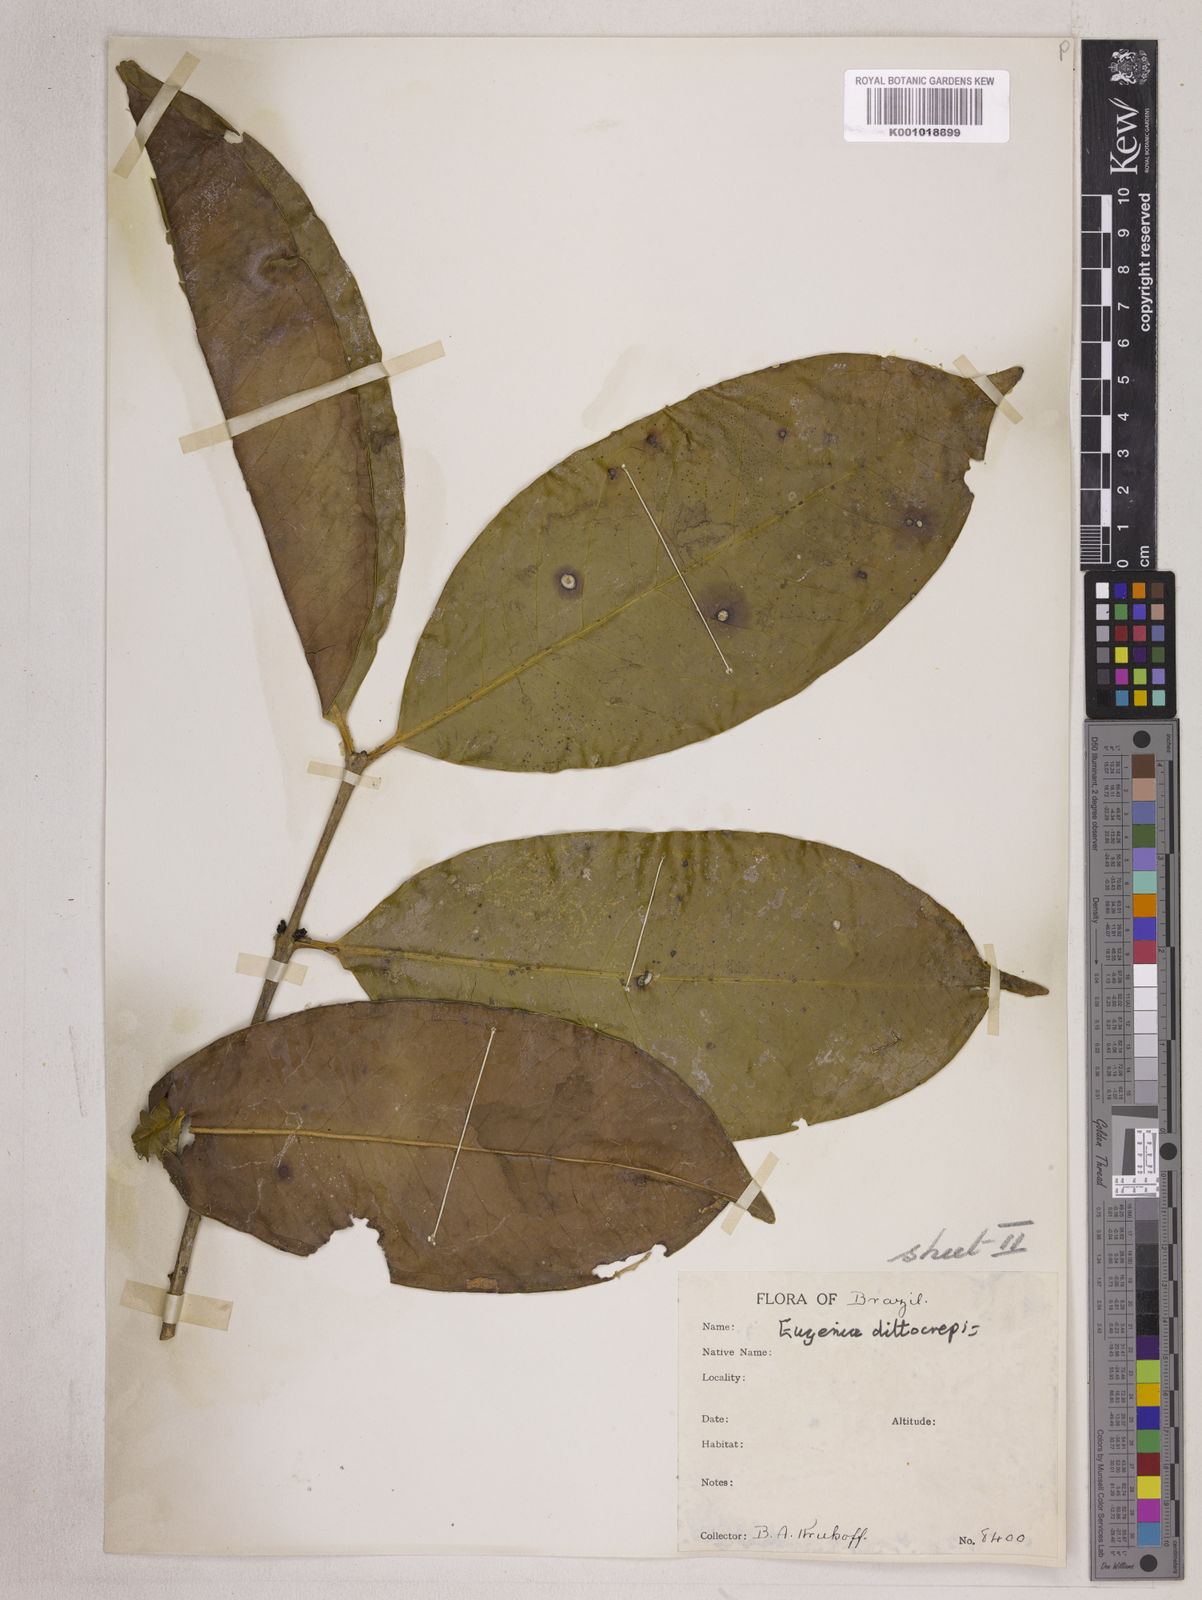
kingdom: Plantae
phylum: Tracheophyta
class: Magnoliopsida
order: Myrtales
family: Myrtaceae
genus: Eugenia
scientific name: Eugenia dittocrepis
